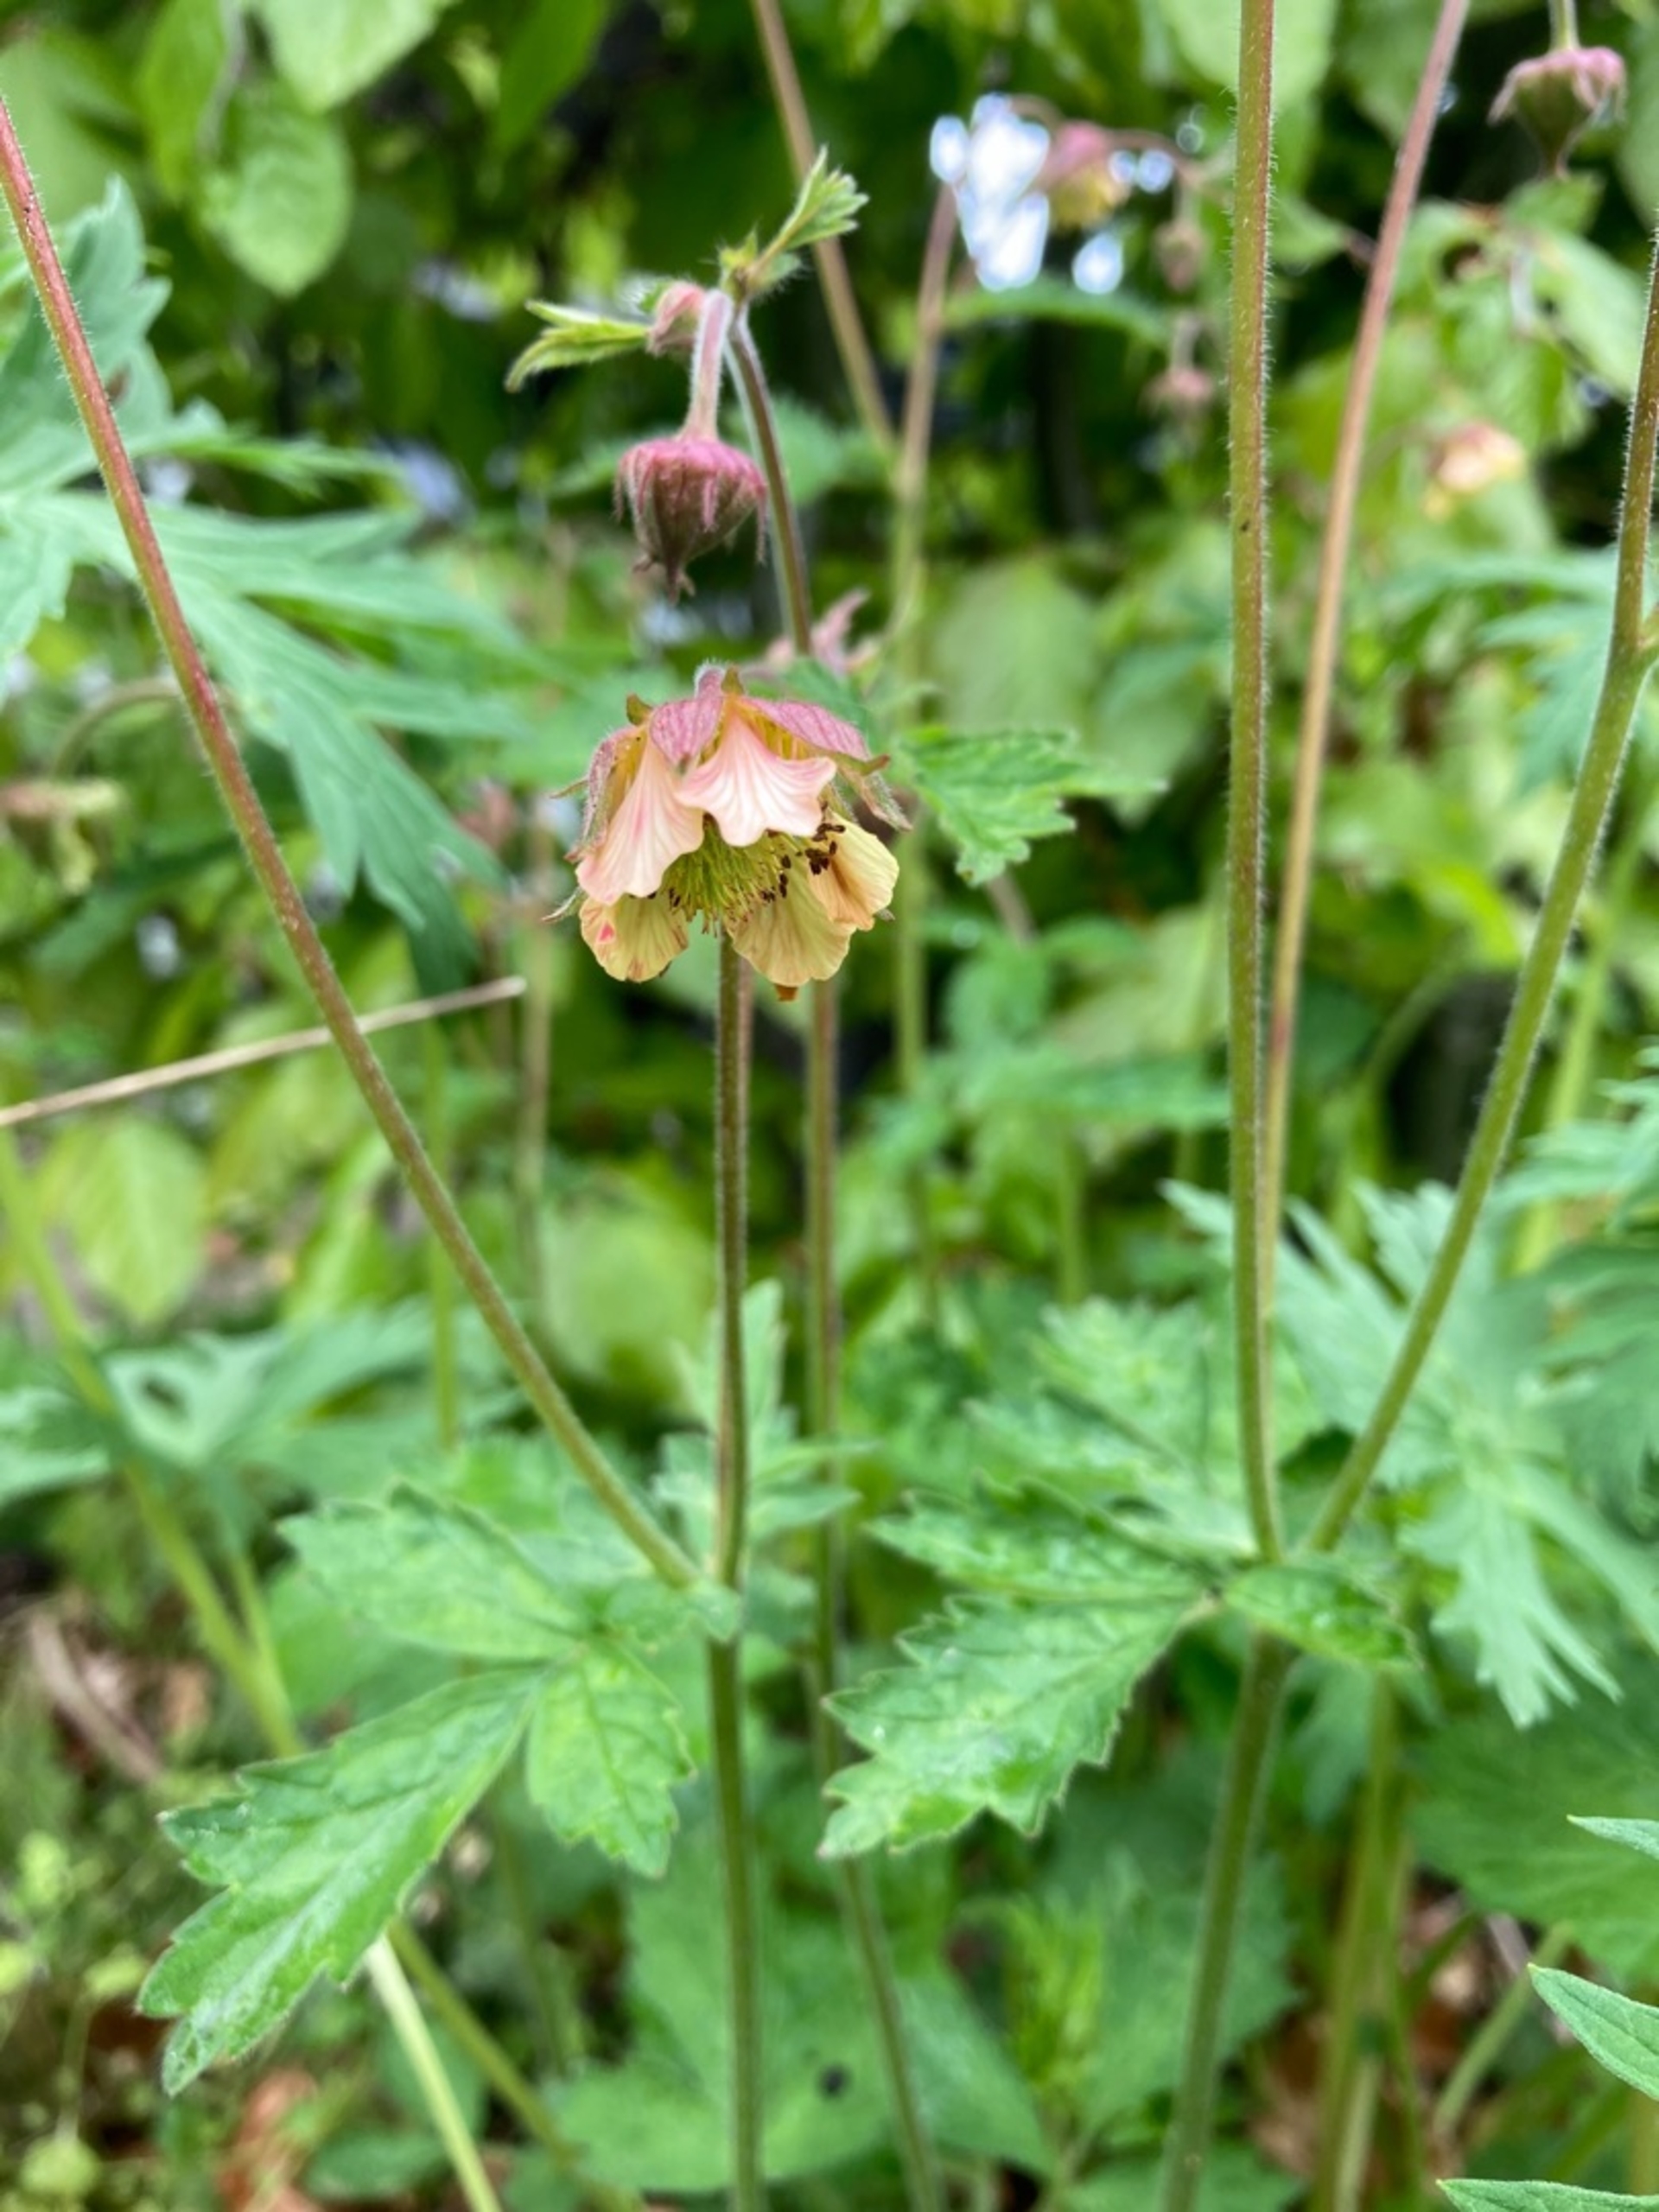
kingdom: Plantae
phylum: Tracheophyta
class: Magnoliopsida
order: Rosales
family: Rosaceae
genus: Geum
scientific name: Geum rivale
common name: Eng-nellikerod
